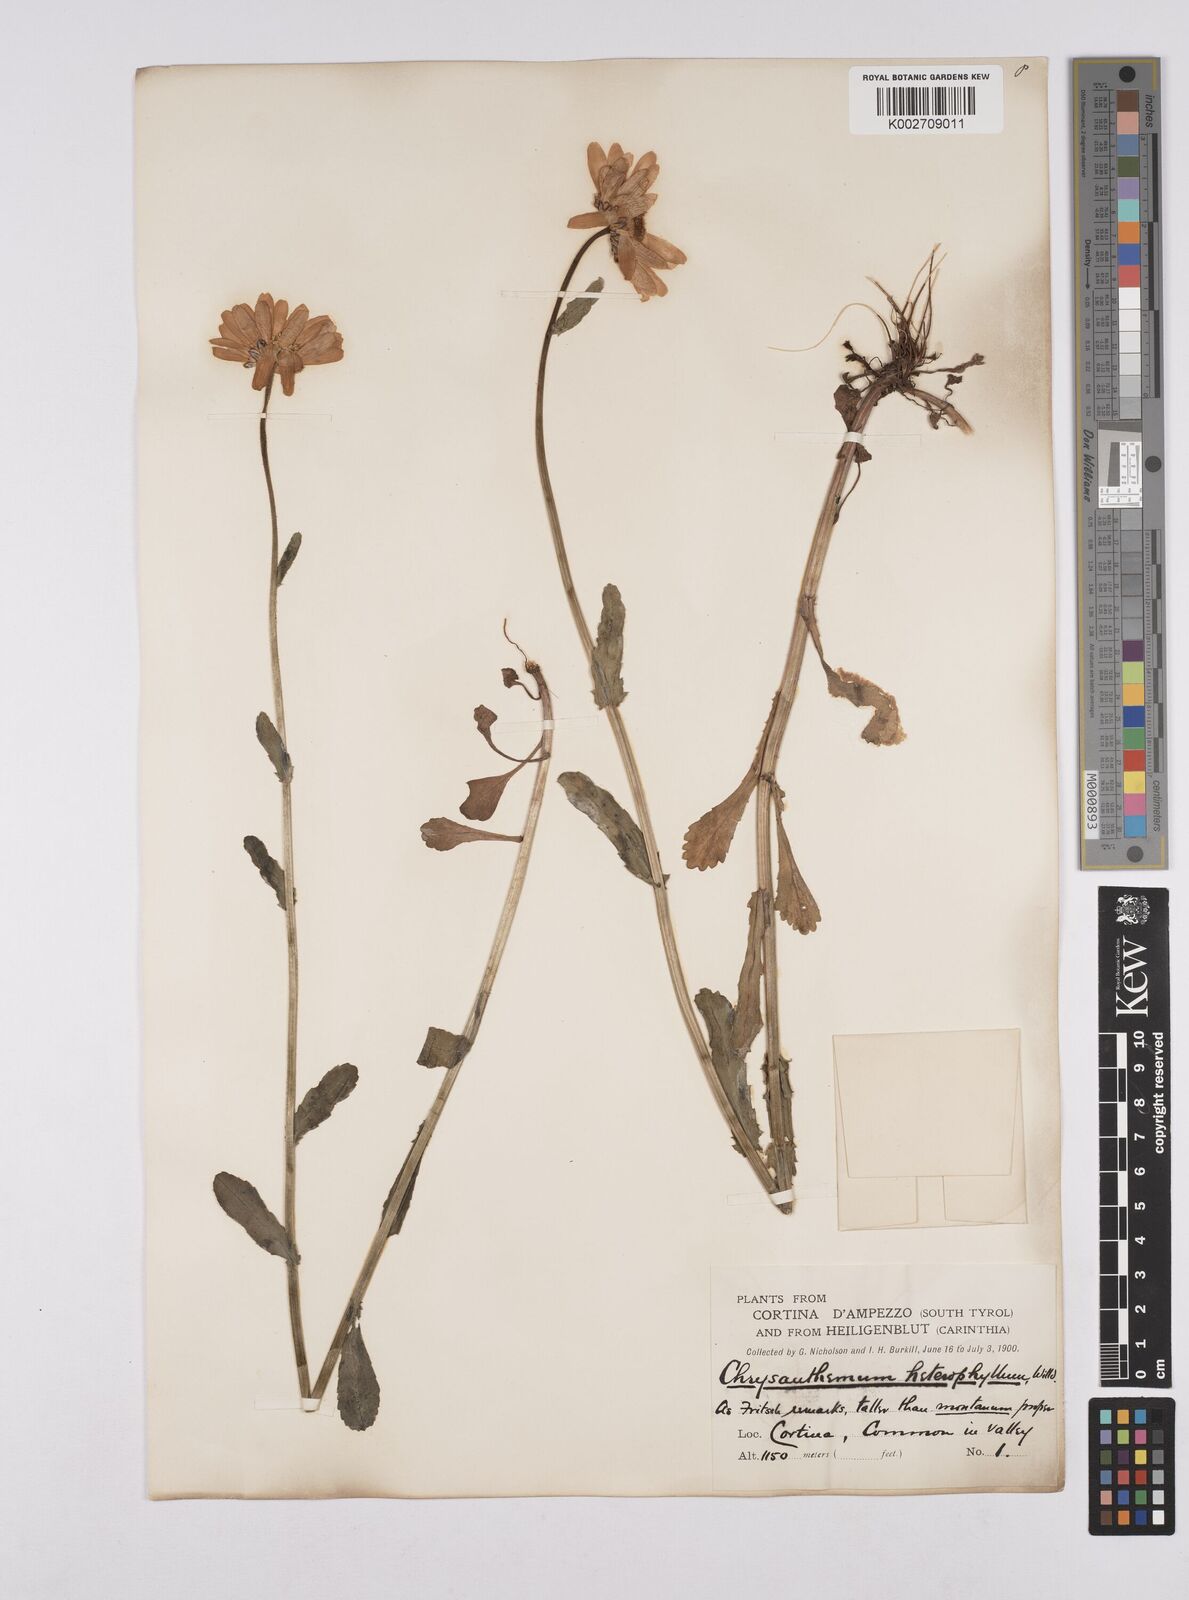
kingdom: Plantae
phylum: Tracheophyta
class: Magnoliopsida
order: Asterales
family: Asteraceae
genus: Leucanthemum
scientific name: Leucanthemum heterophyllum
